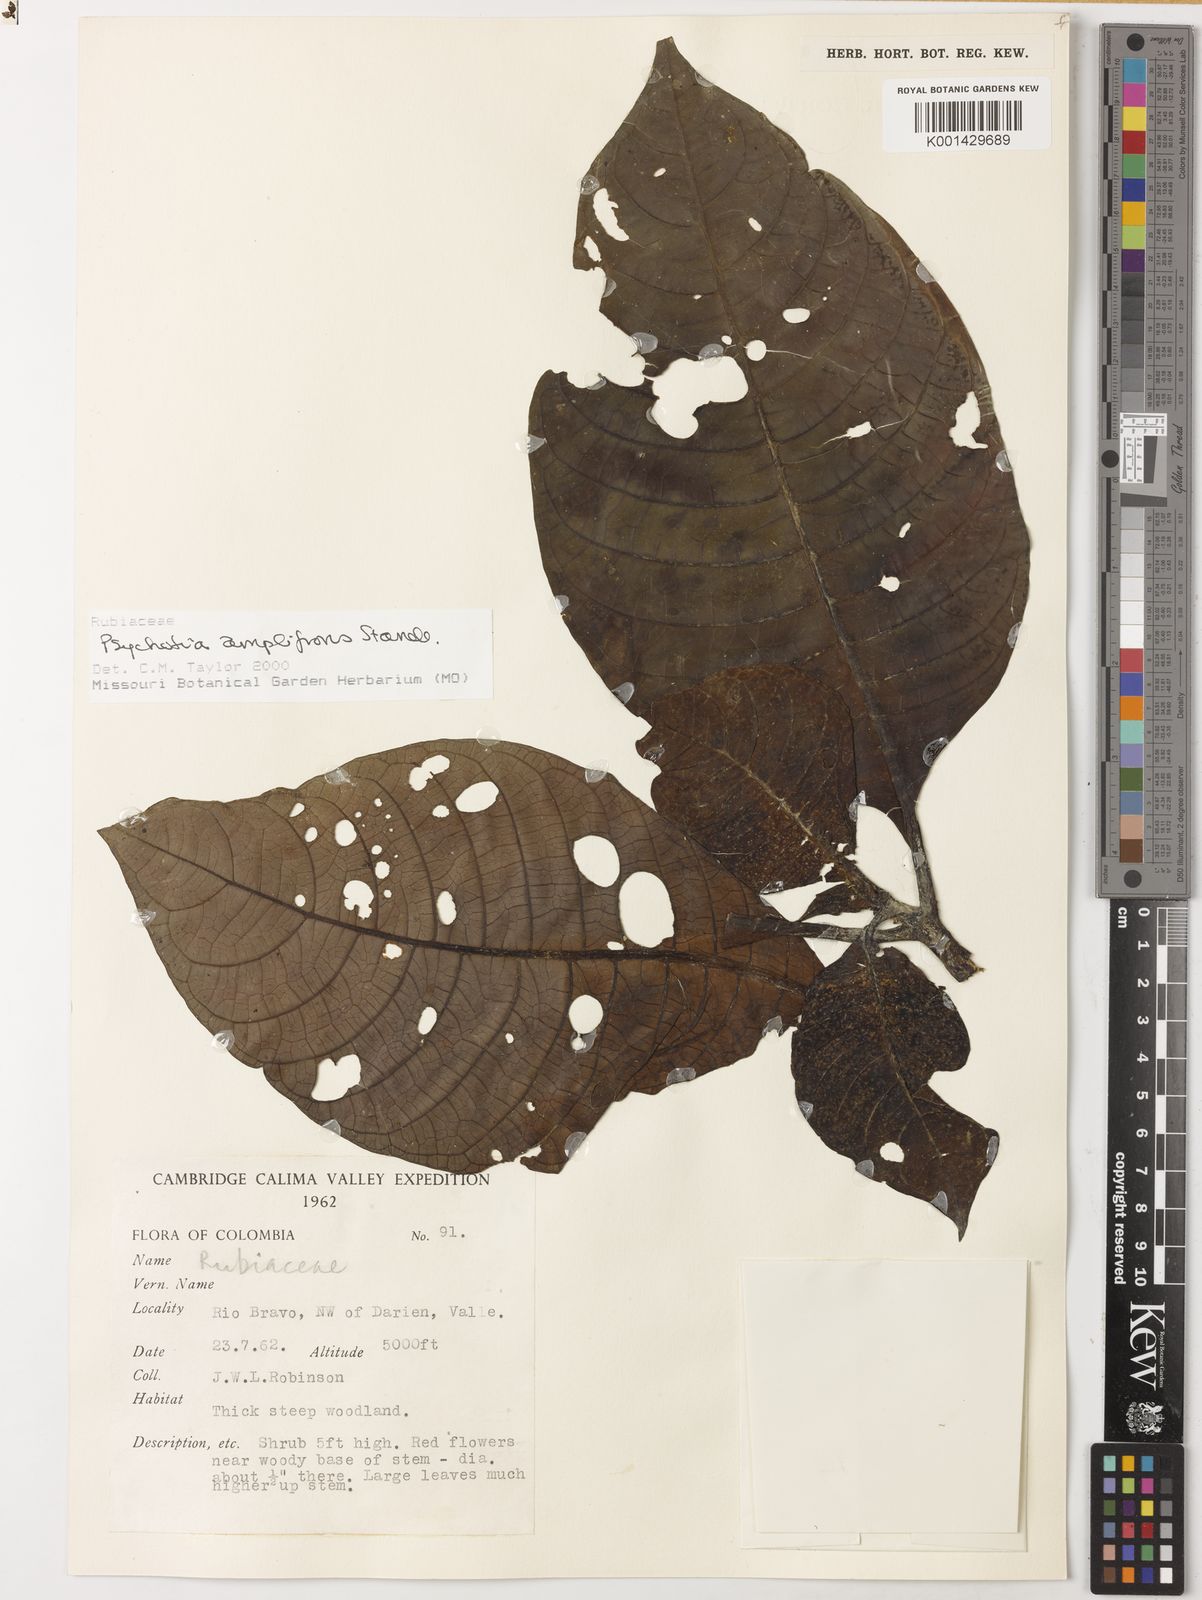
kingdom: Plantae
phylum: Tracheophyta
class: Magnoliopsida
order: Gentianales
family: Rubiaceae
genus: Psychotria
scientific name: Psychotria amplifrons
